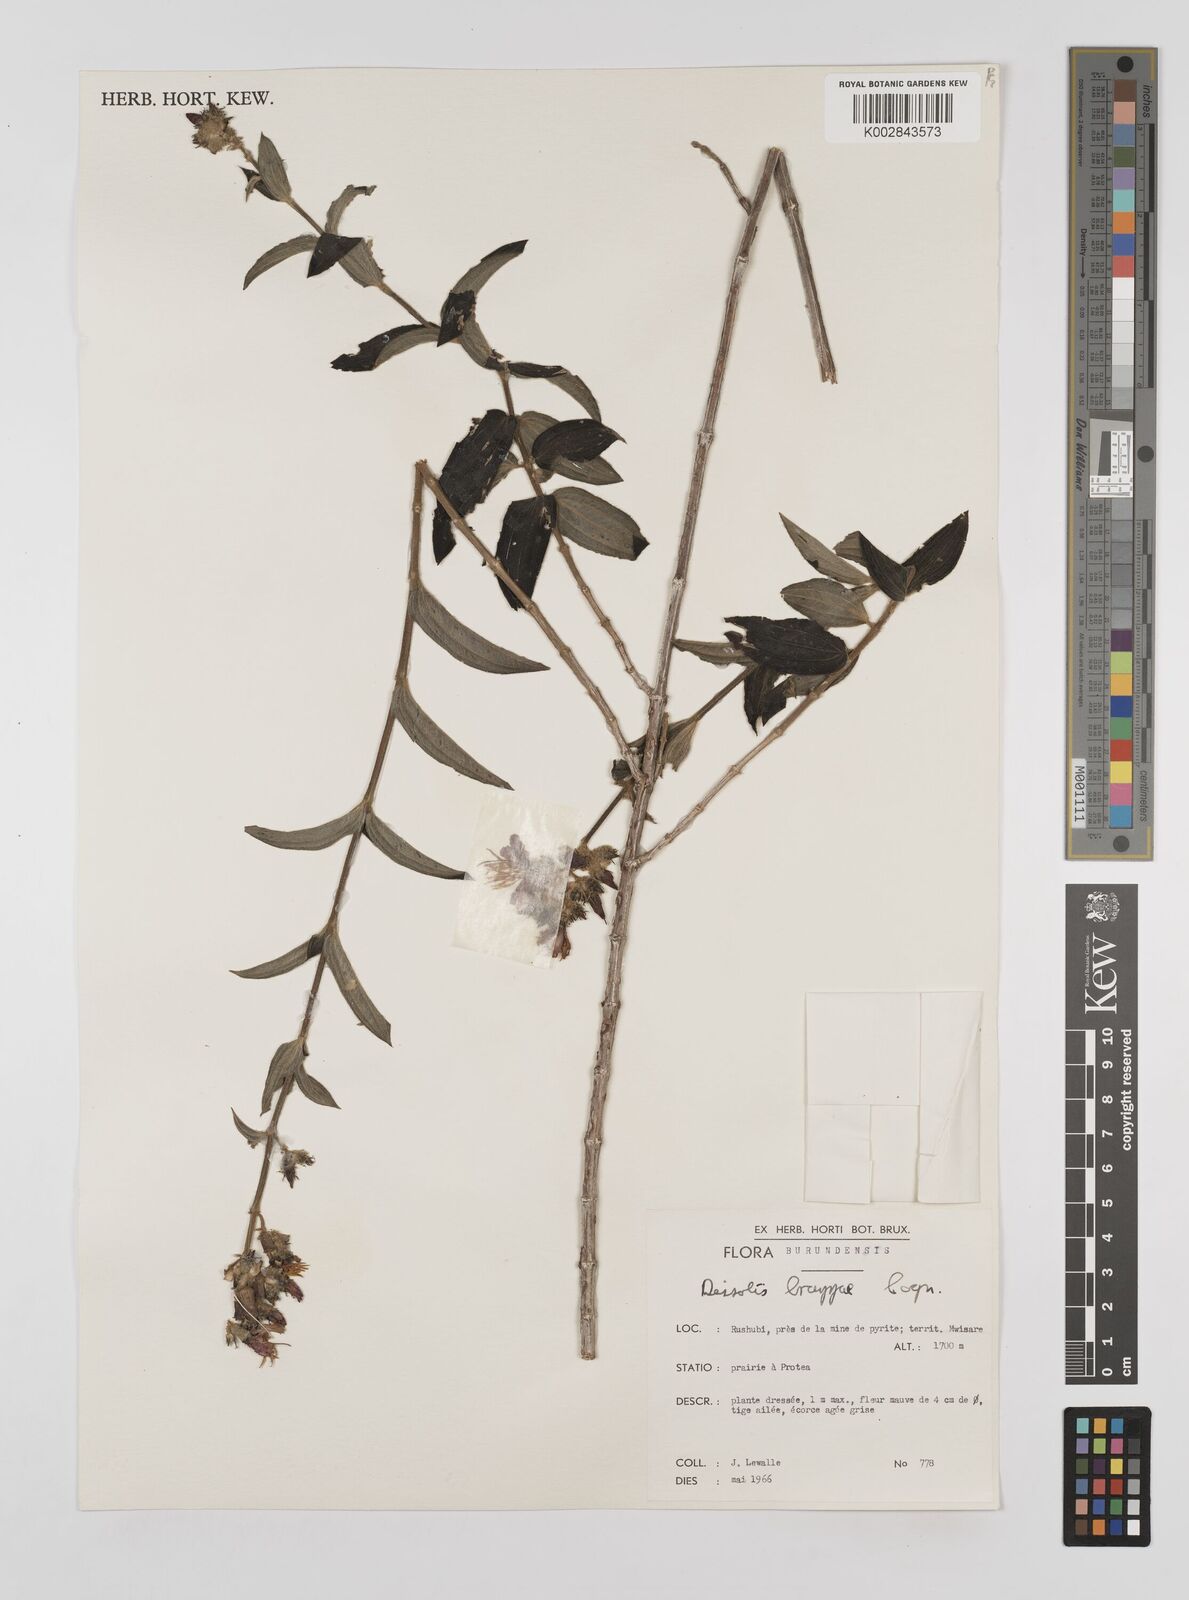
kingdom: Plantae
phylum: Tracheophyta
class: Magnoliopsida
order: Myrtales
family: Melastomataceae
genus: Dupineta
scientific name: Dupineta brazzae
